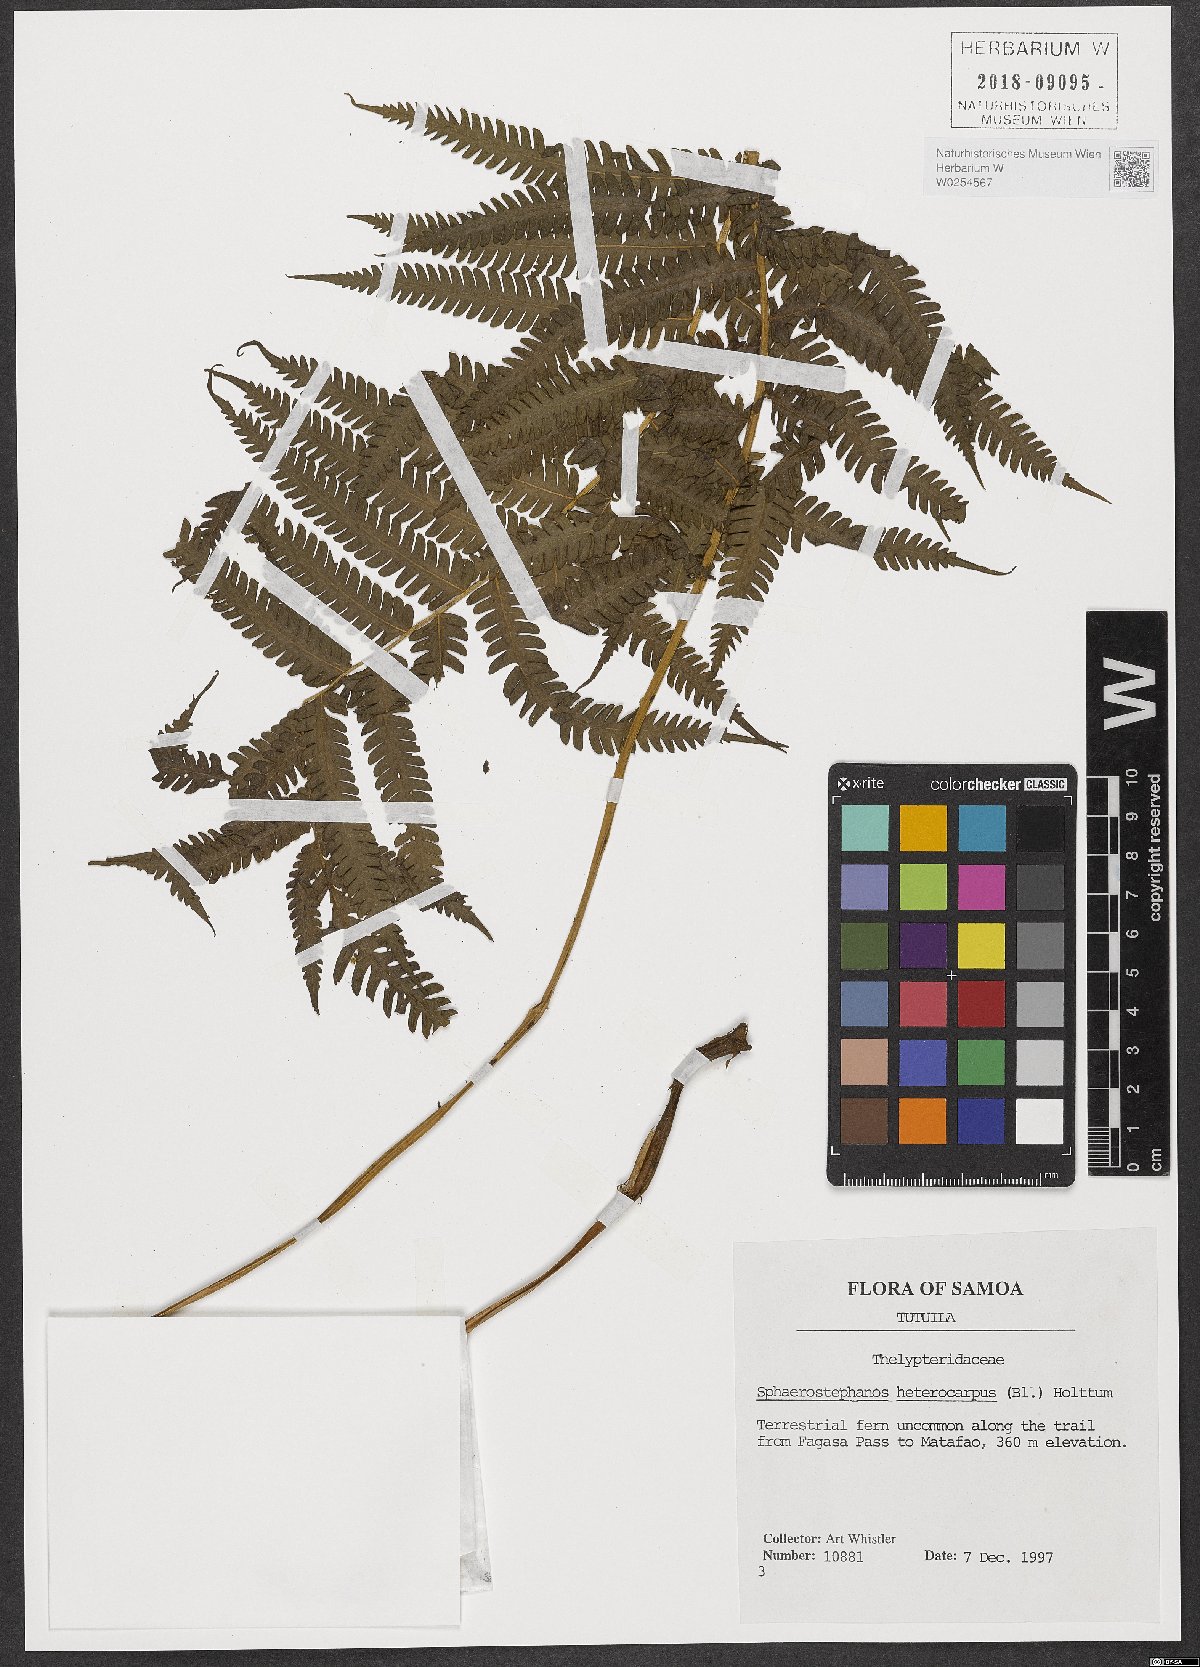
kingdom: Plantae
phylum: Tracheophyta
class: Polypodiopsida
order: Polypodiales
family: Thelypteridaceae
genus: Sphaerostephanos
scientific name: Sphaerostephanos heterocarpus
